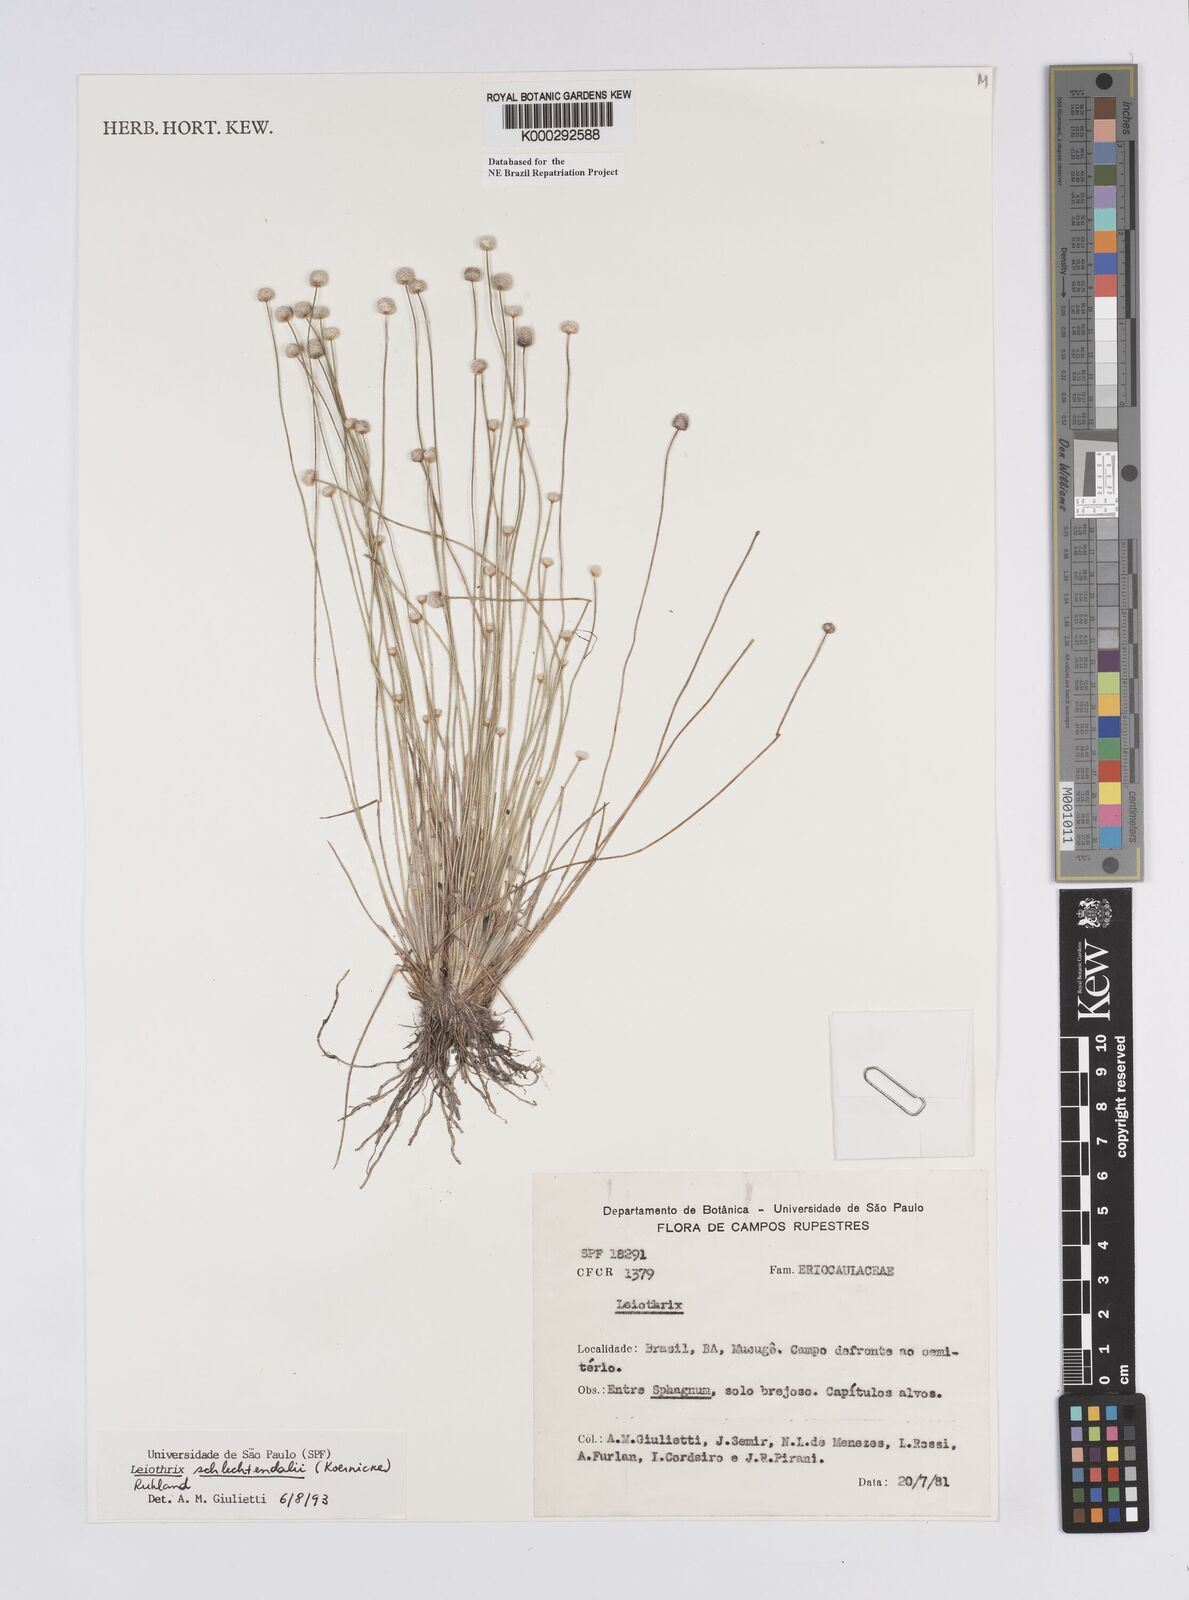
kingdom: Plantae
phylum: Tracheophyta
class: Liliopsida
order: Poales
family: Eriocaulaceae
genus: Leiothrix
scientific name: Leiothrix schlechtendalii
